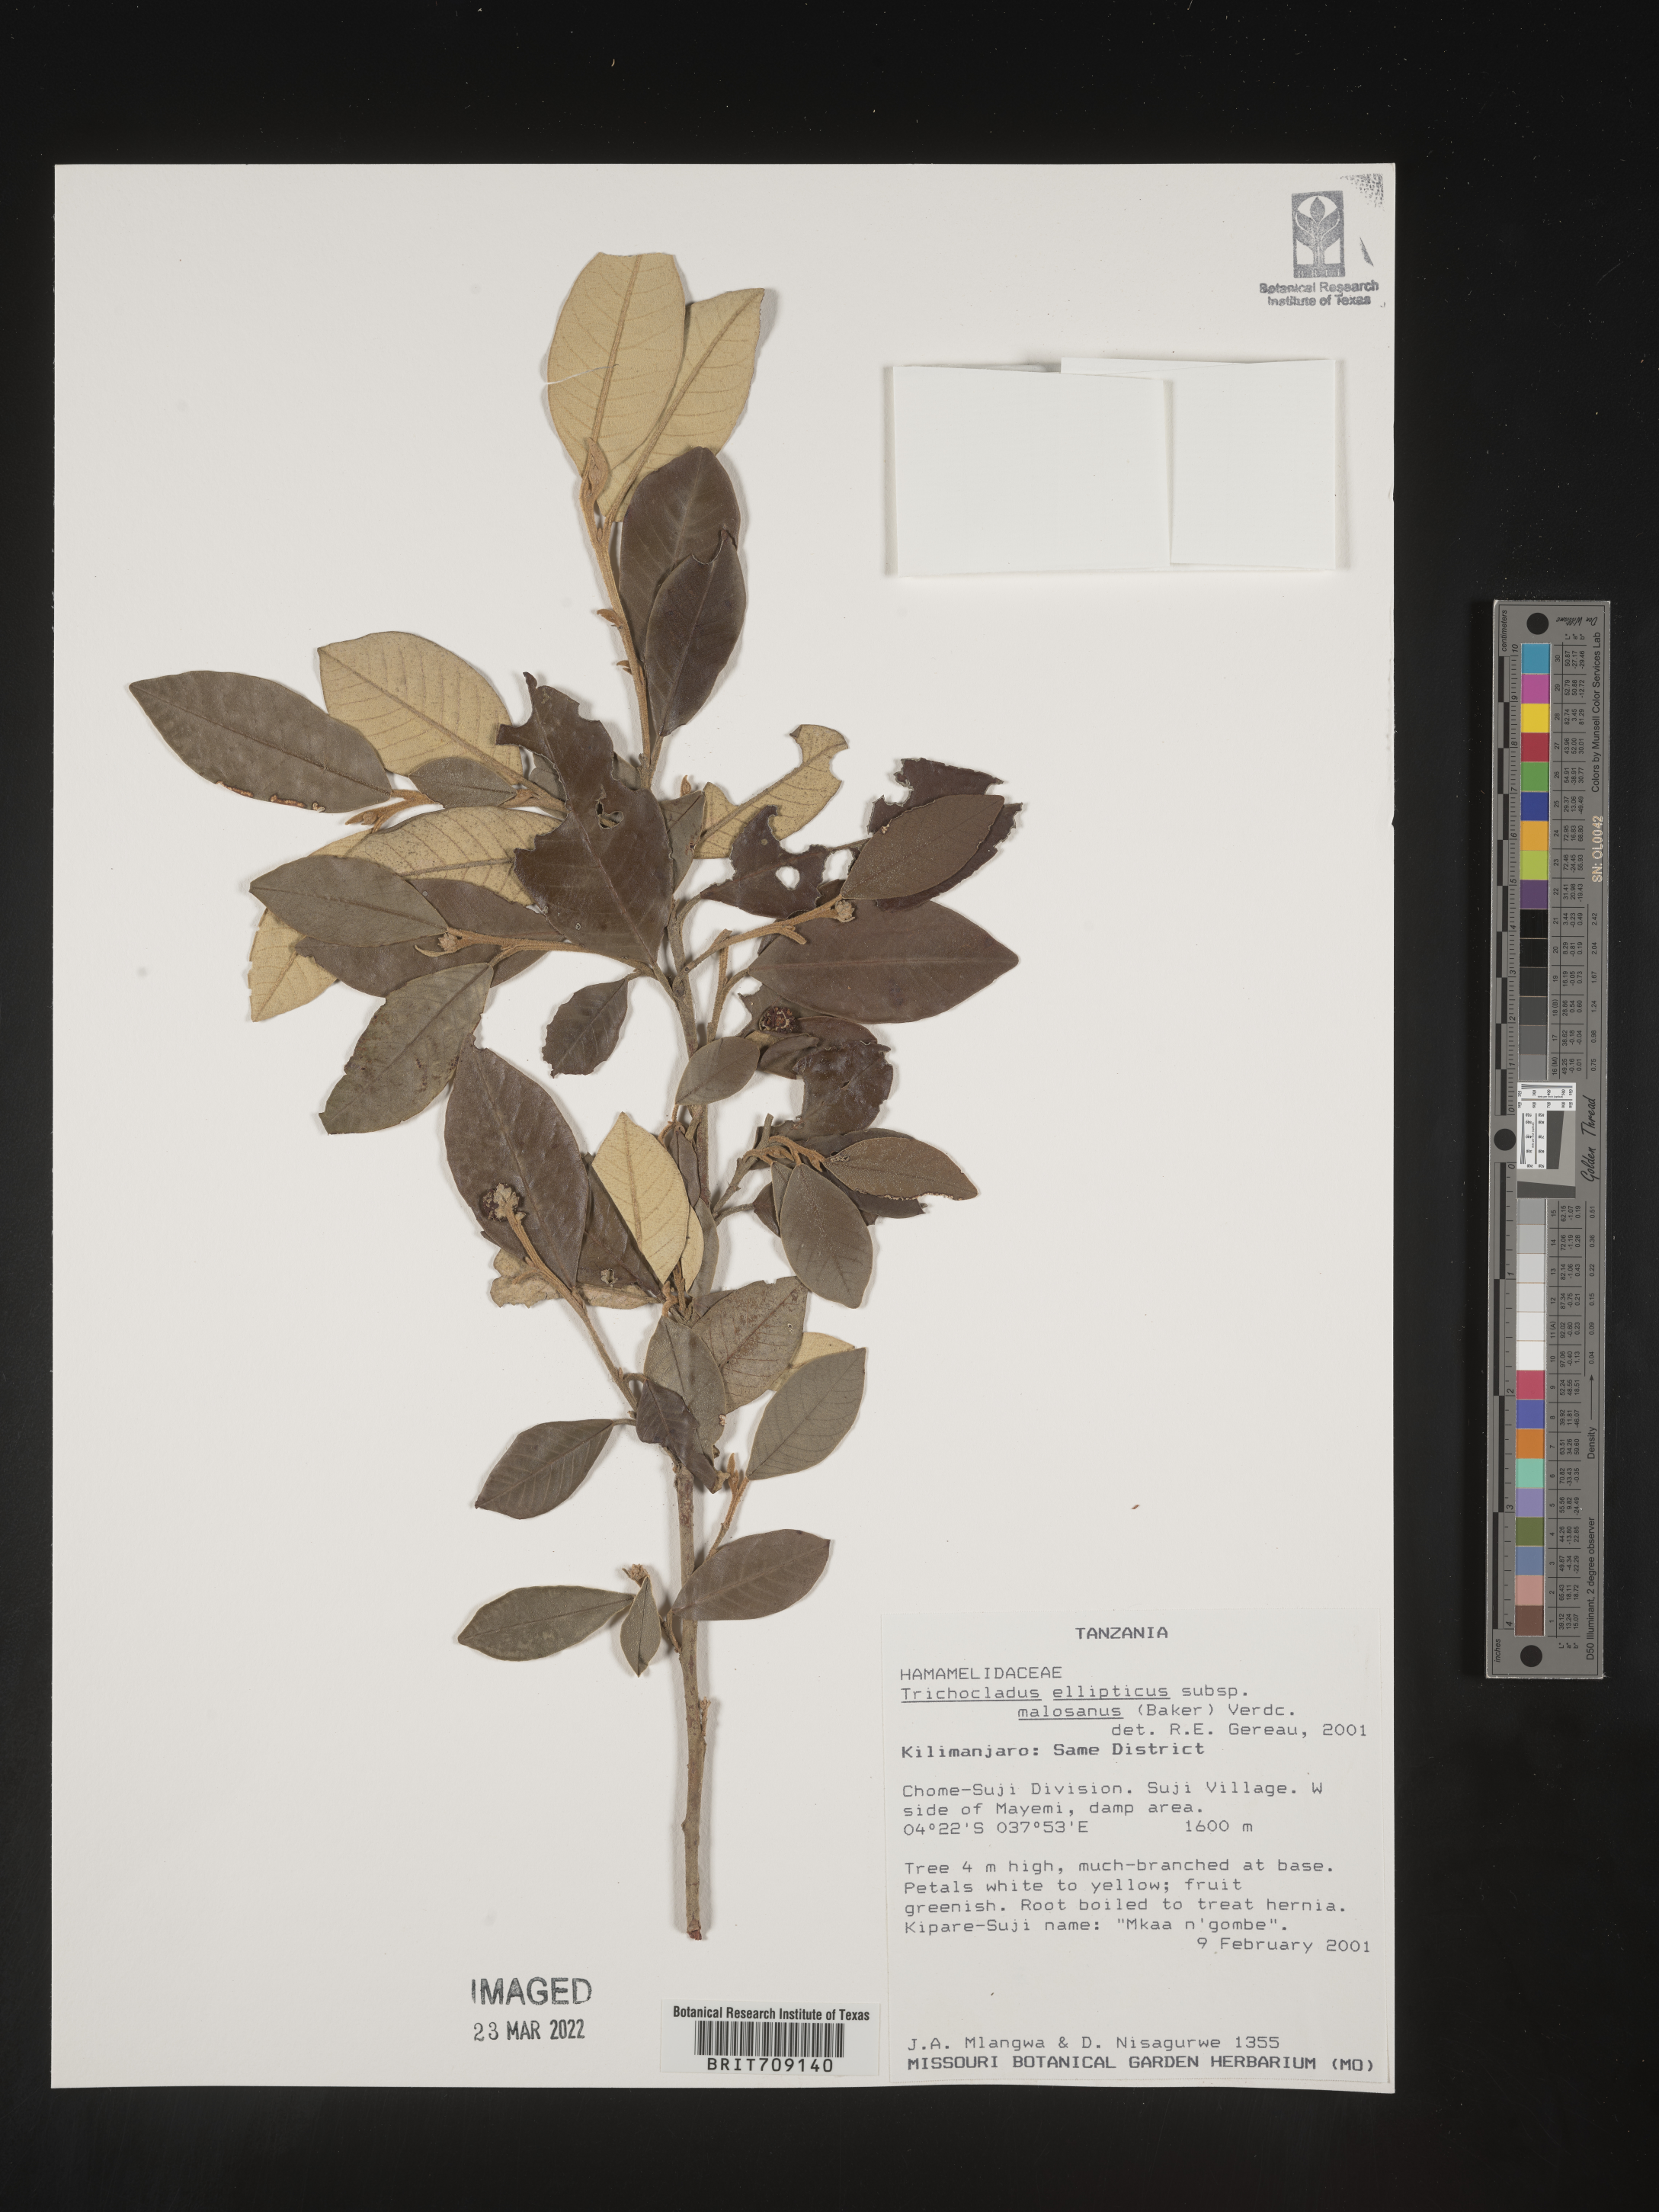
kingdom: Plantae
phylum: Tracheophyta
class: Magnoliopsida
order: Saxifragales
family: Hamamelidaceae
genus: Trichocladus
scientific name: Trichocladus
